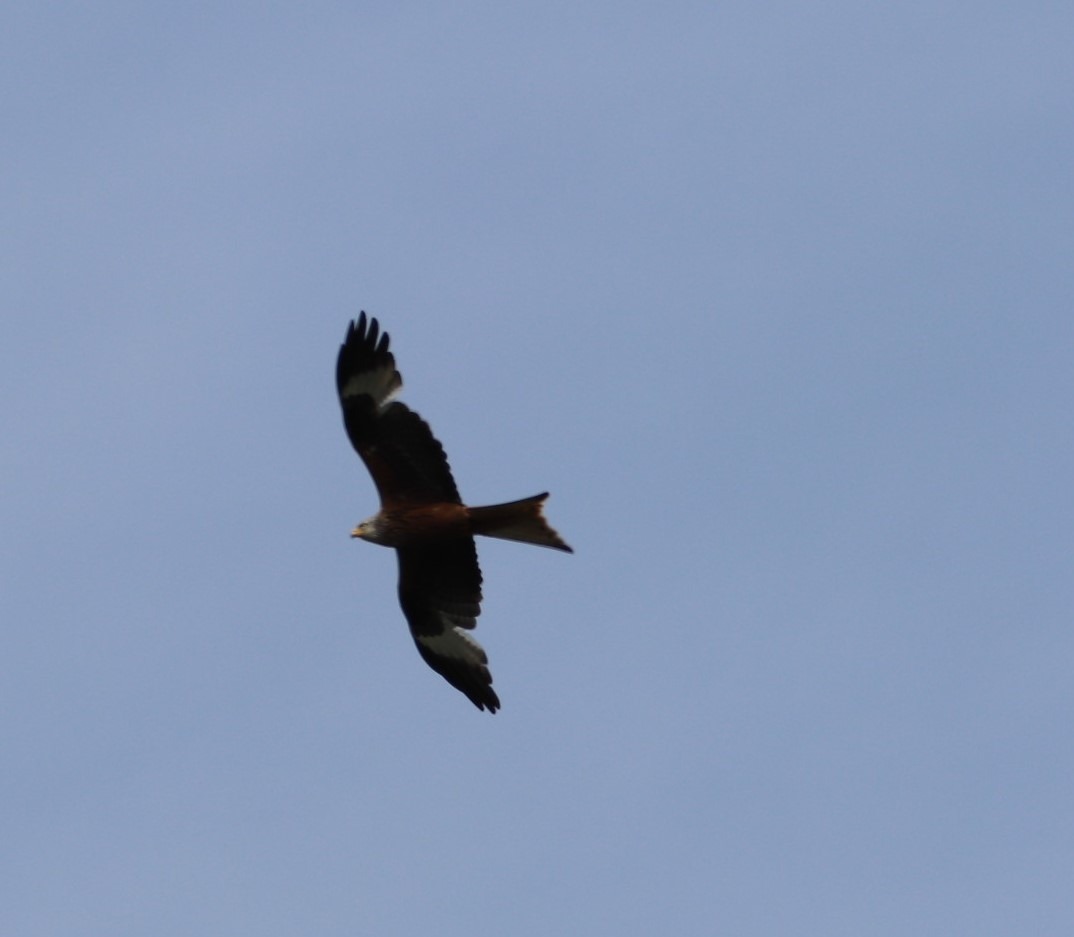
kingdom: Animalia
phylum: Chordata
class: Aves
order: Accipitriformes
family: Accipitridae
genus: Milvus
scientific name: Milvus milvus
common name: Rød glente
